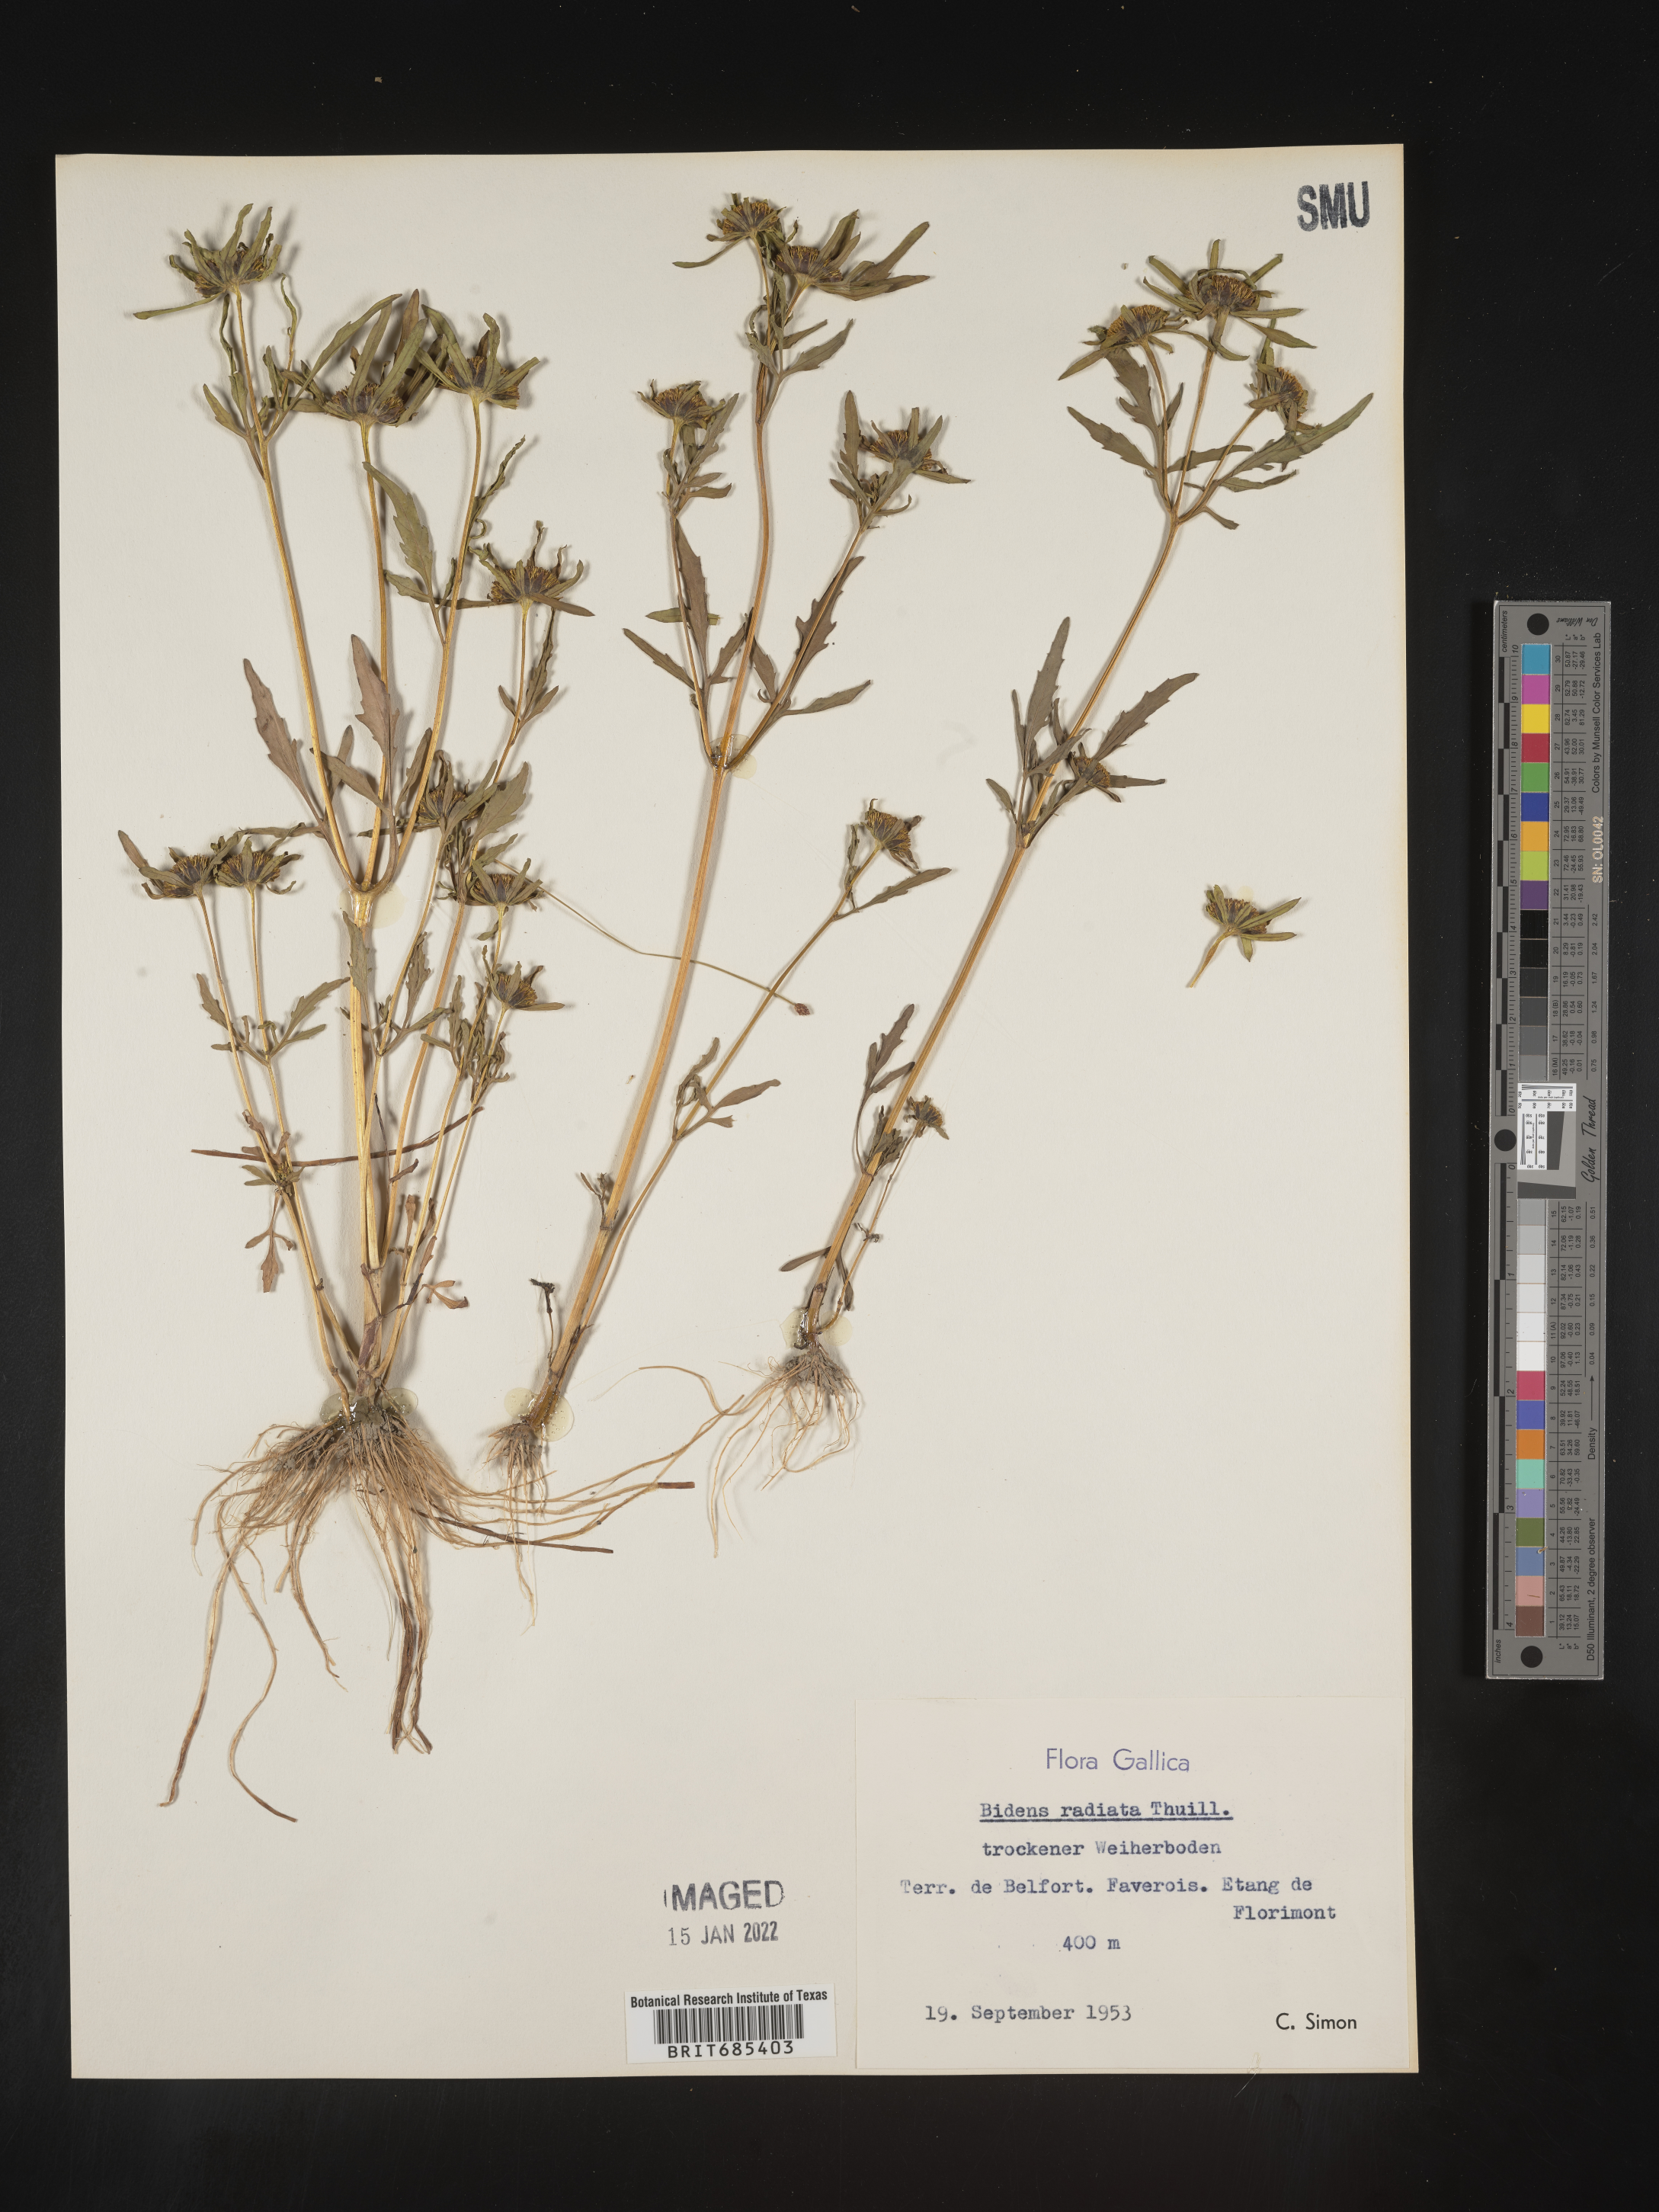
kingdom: Plantae
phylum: Tracheophyta
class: Magnoliopsida
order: Asterales
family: Asteraceae
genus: Bidens
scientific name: Bidens
